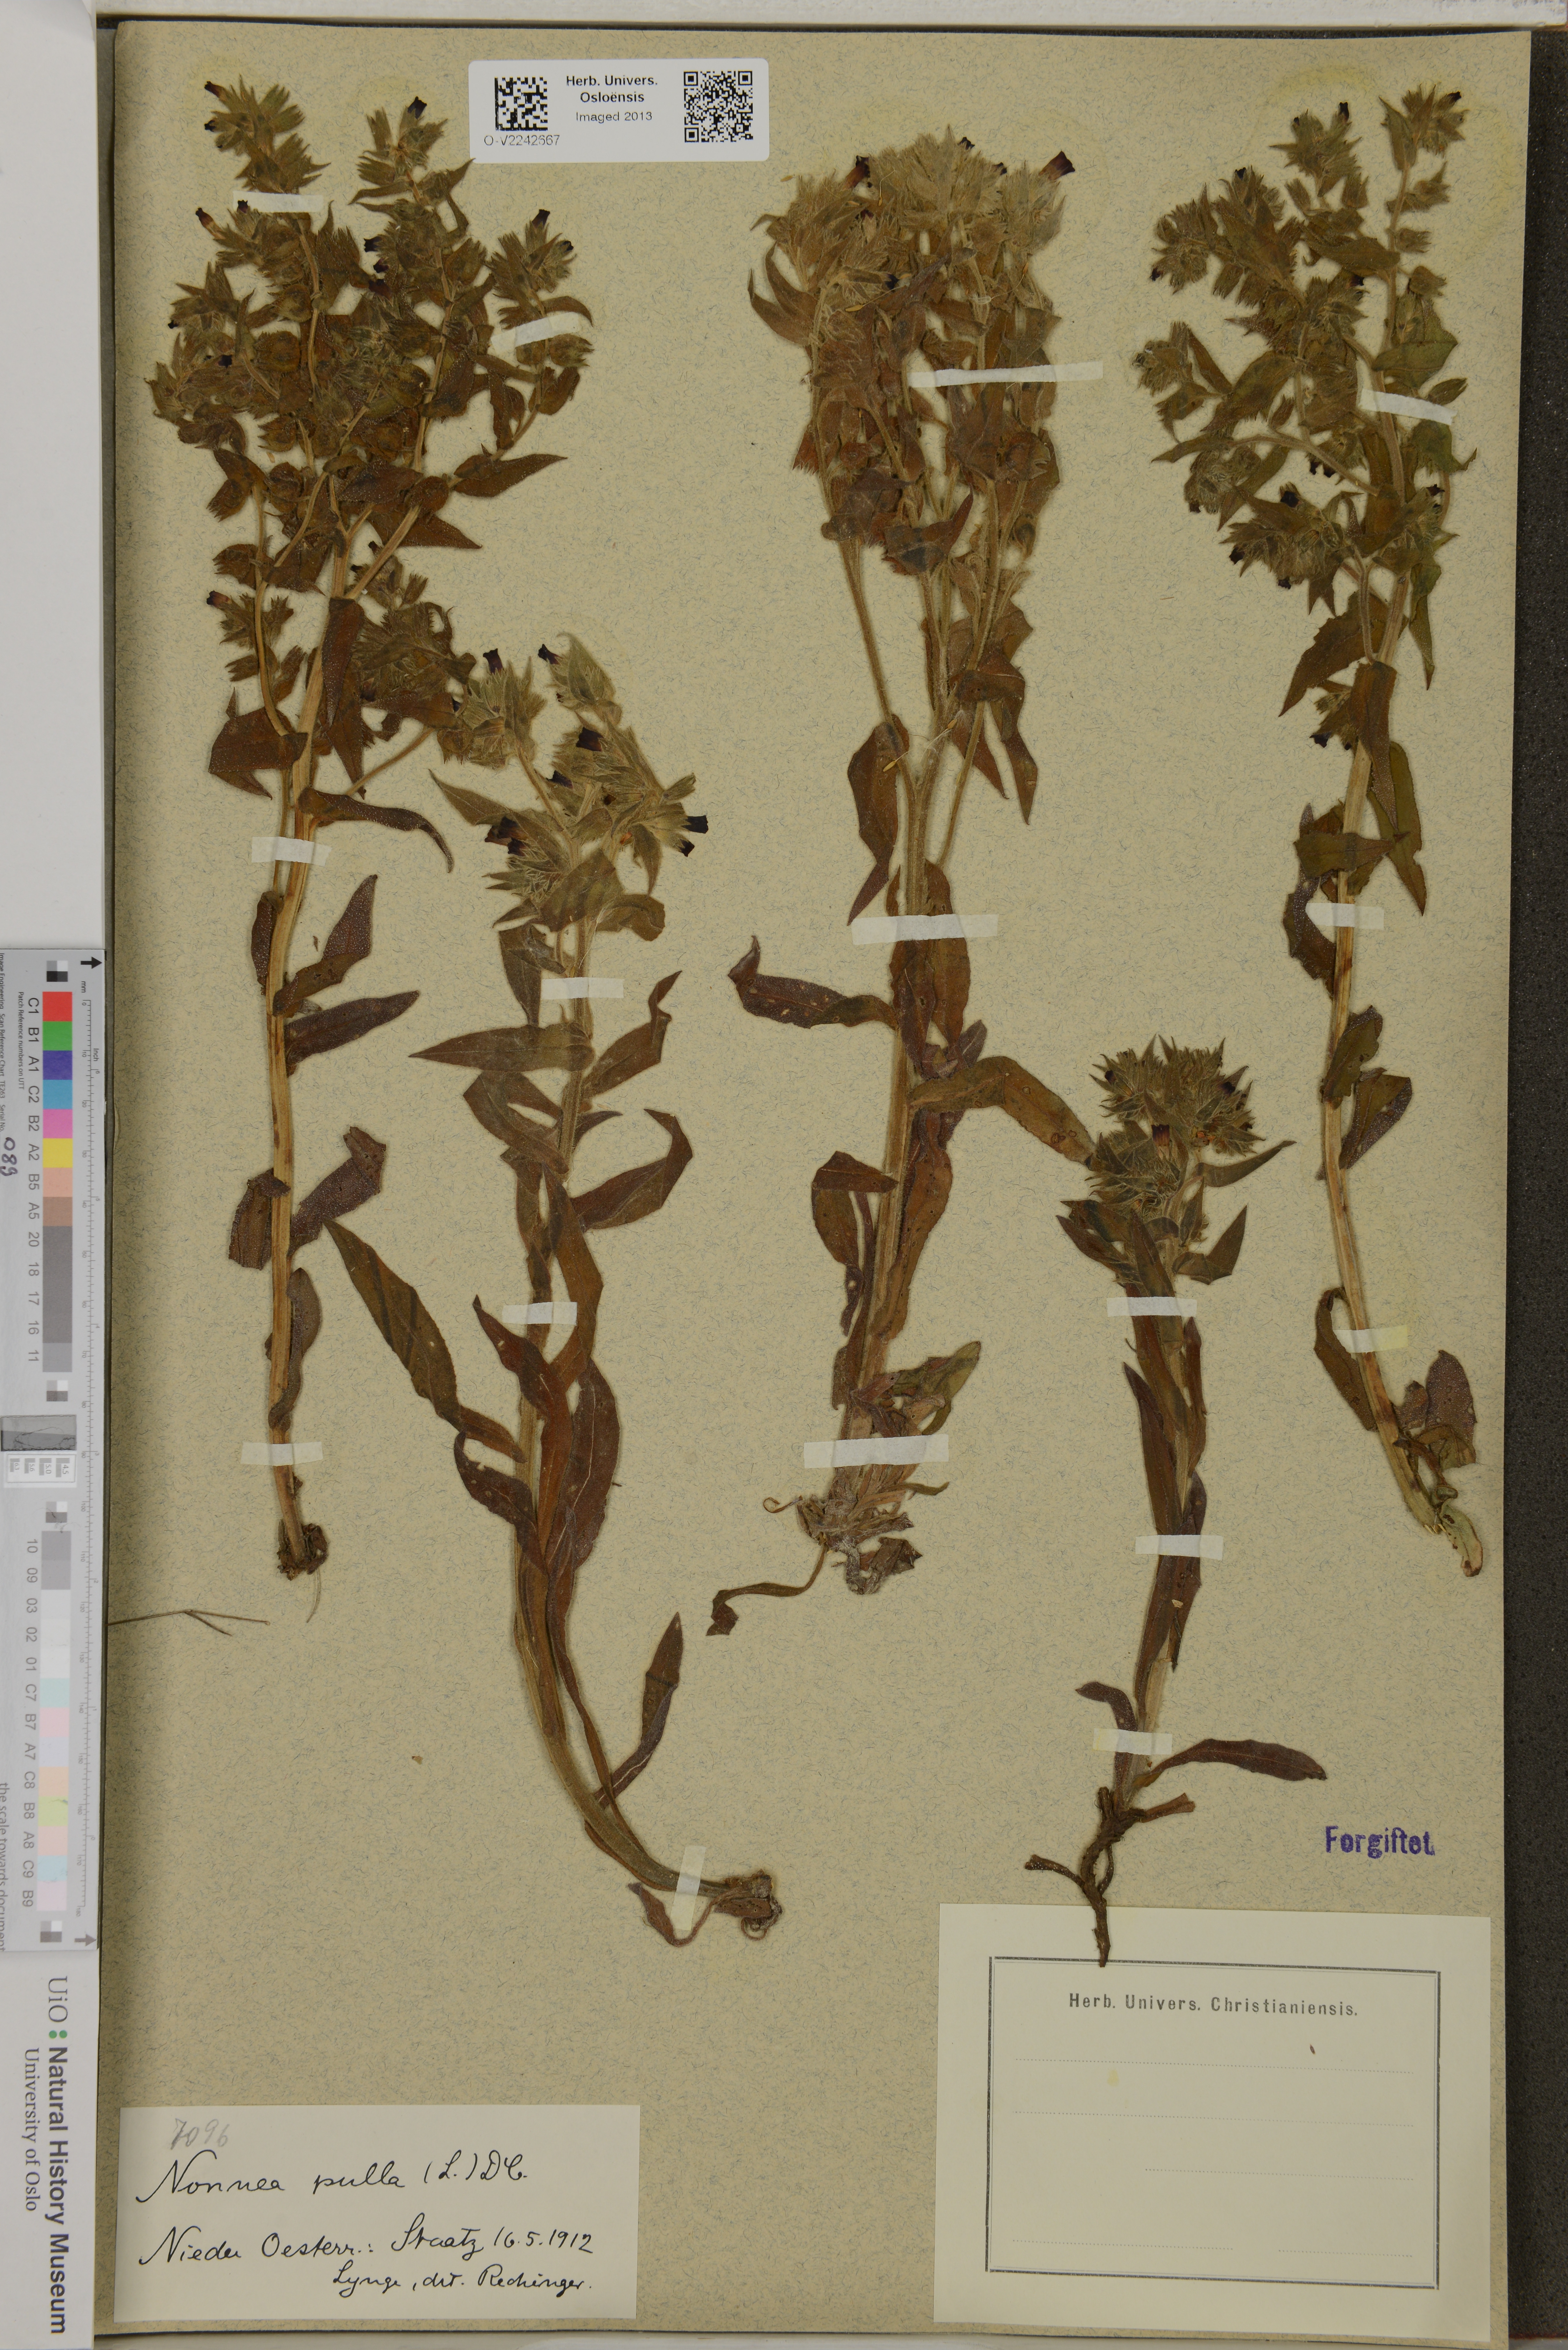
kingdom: Plantae
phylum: Tracheophyta
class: Magnoliopsida
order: Boraginales
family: Boraginaceae
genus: Nonea
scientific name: Nonea pulla
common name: Brown nonea
